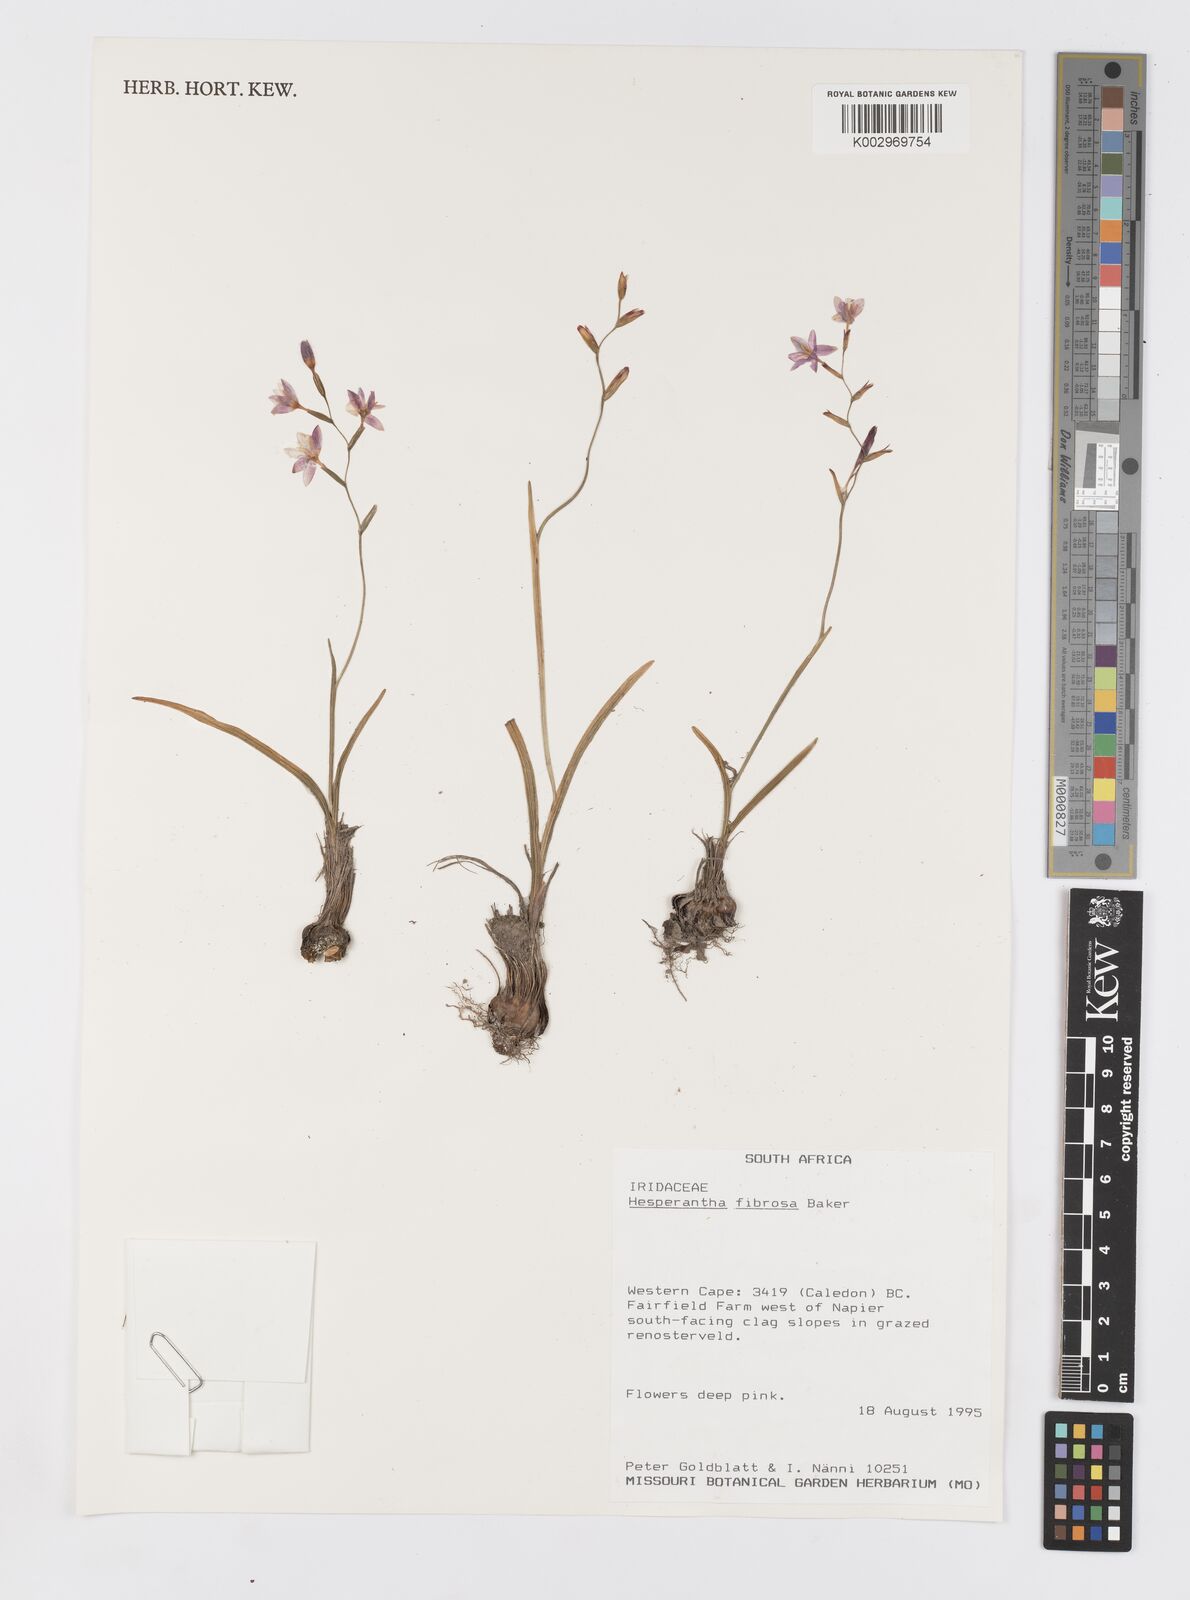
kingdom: Plantae
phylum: Tracheophyta
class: Liliopsida
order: Asparagales
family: Iridaceae
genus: Hesperantha
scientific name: Hesperantha fibrosa
